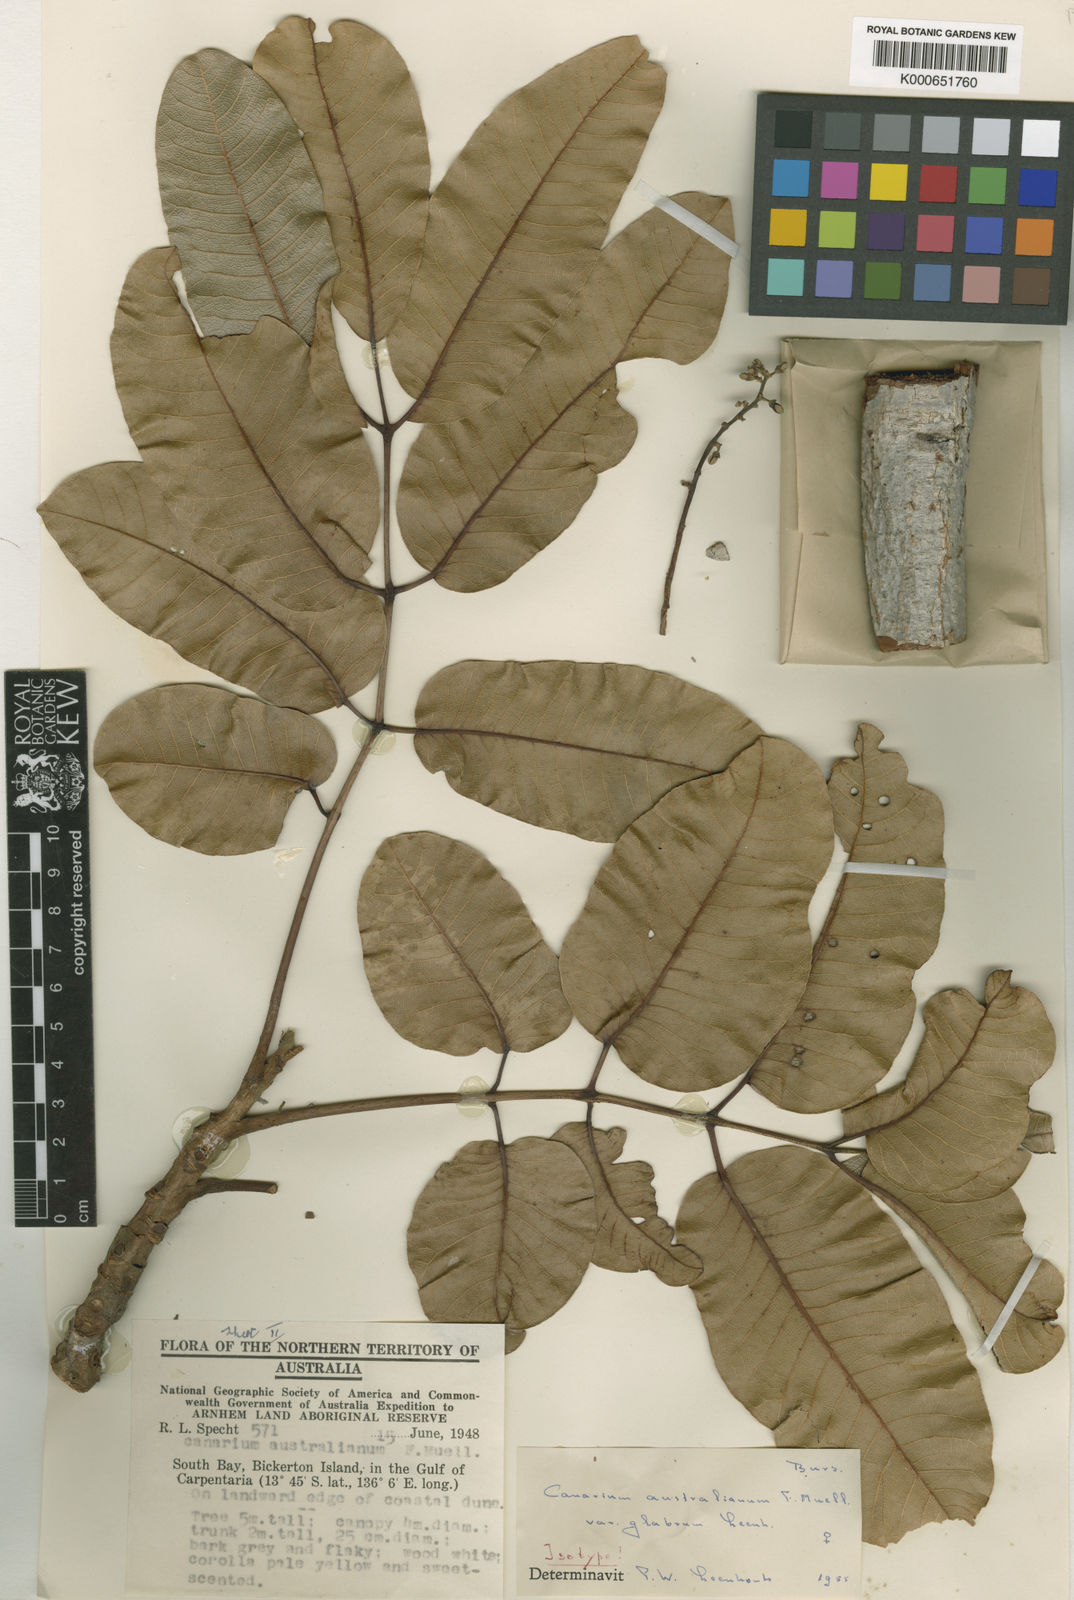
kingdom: Plantae
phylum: Tracheophyta
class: Magnoliopsida
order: Sapindales
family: Burseraceae
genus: Canarium
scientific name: Canarium australianum
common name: Island white-beech
